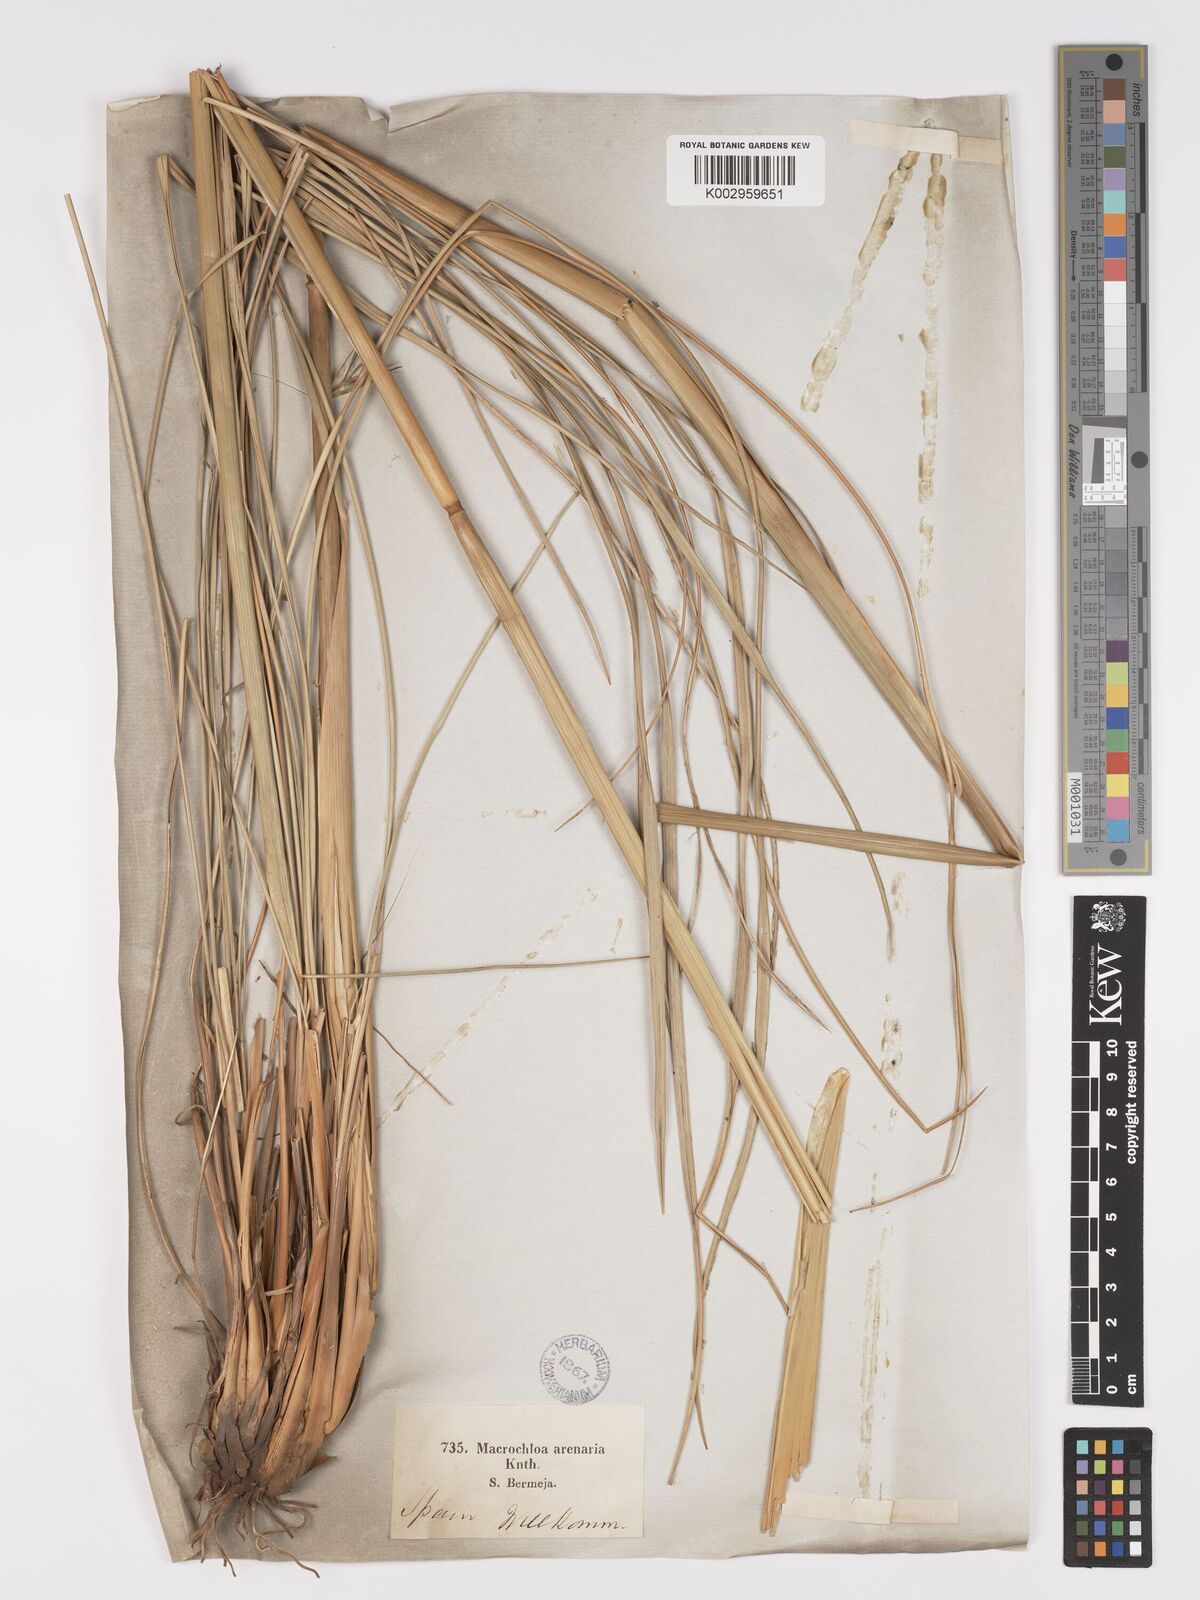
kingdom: Plantae
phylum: Tracheophyta
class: Liliopsida
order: Poales
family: Poaceae
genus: Celtica
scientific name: Celtica gigantea
